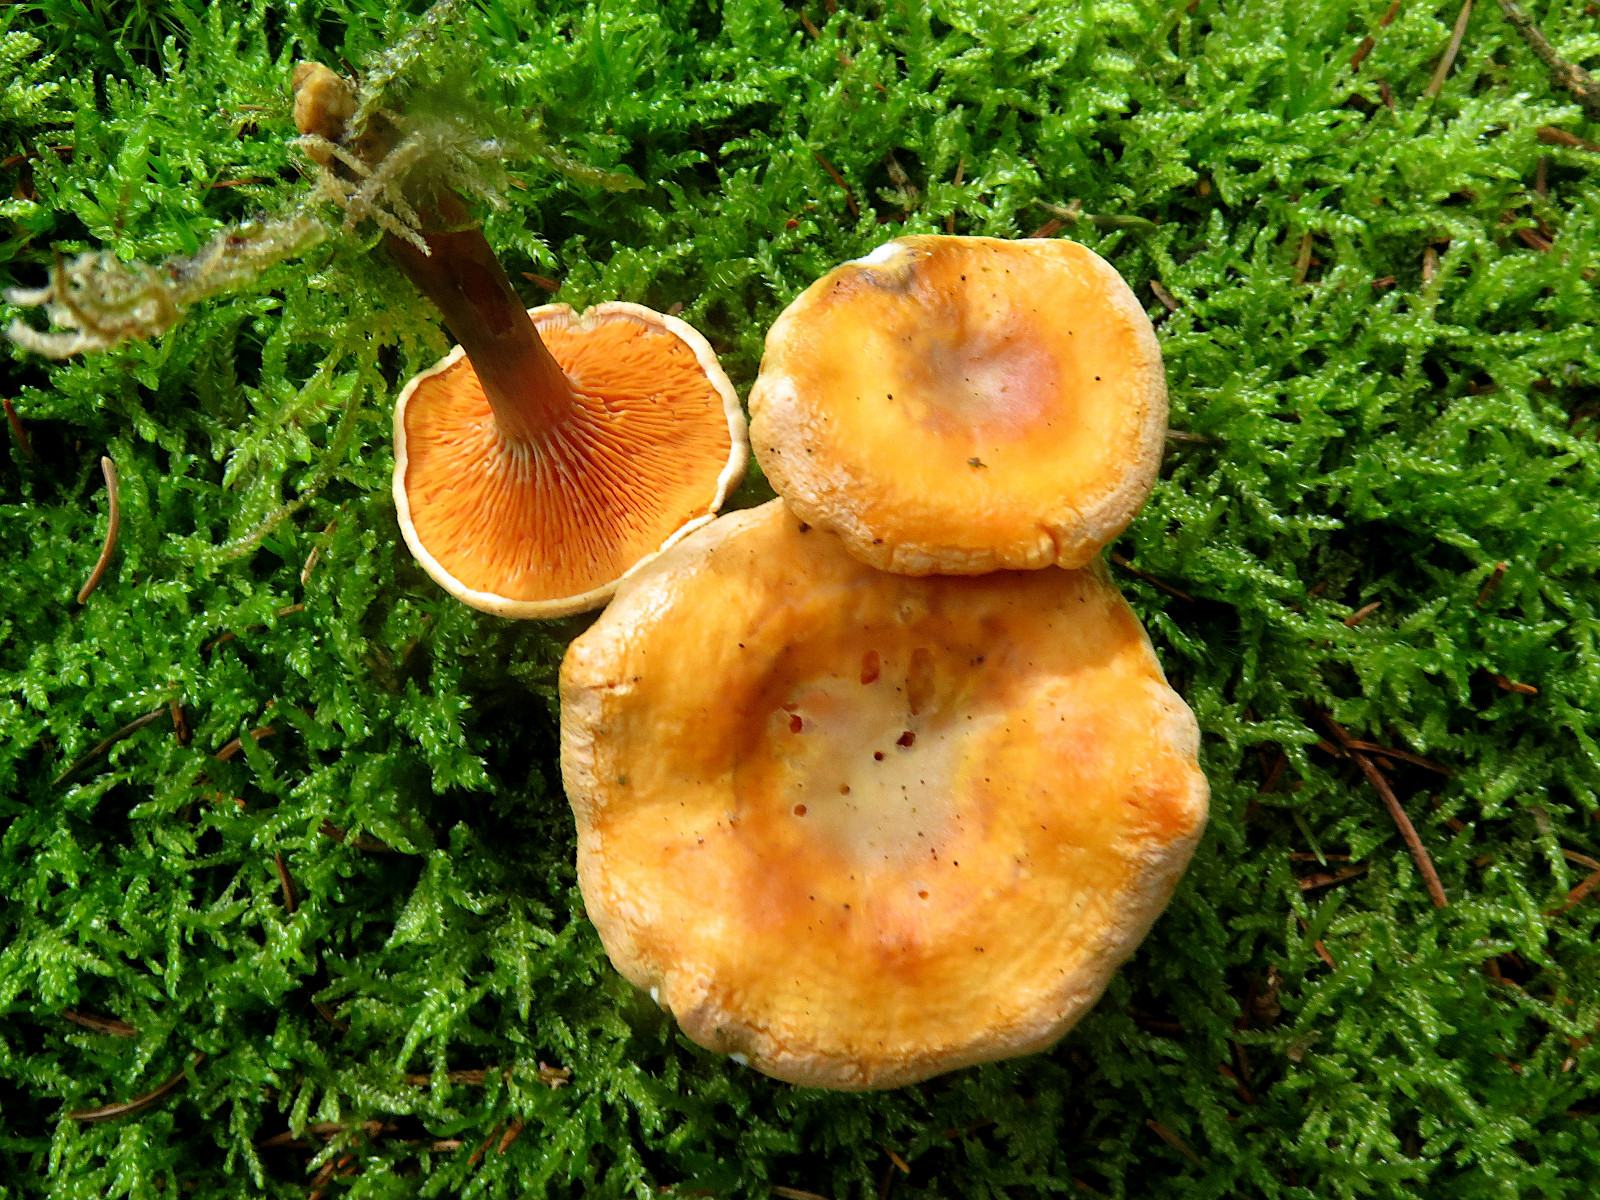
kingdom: Fungi
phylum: Basidiomycota
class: Agaricomycetes
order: Boletales
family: Hygrophoropsidaceae
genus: Hygrophoropsis
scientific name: Hygrophoropsis aurantiaca
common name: almindelig orangekantarel
